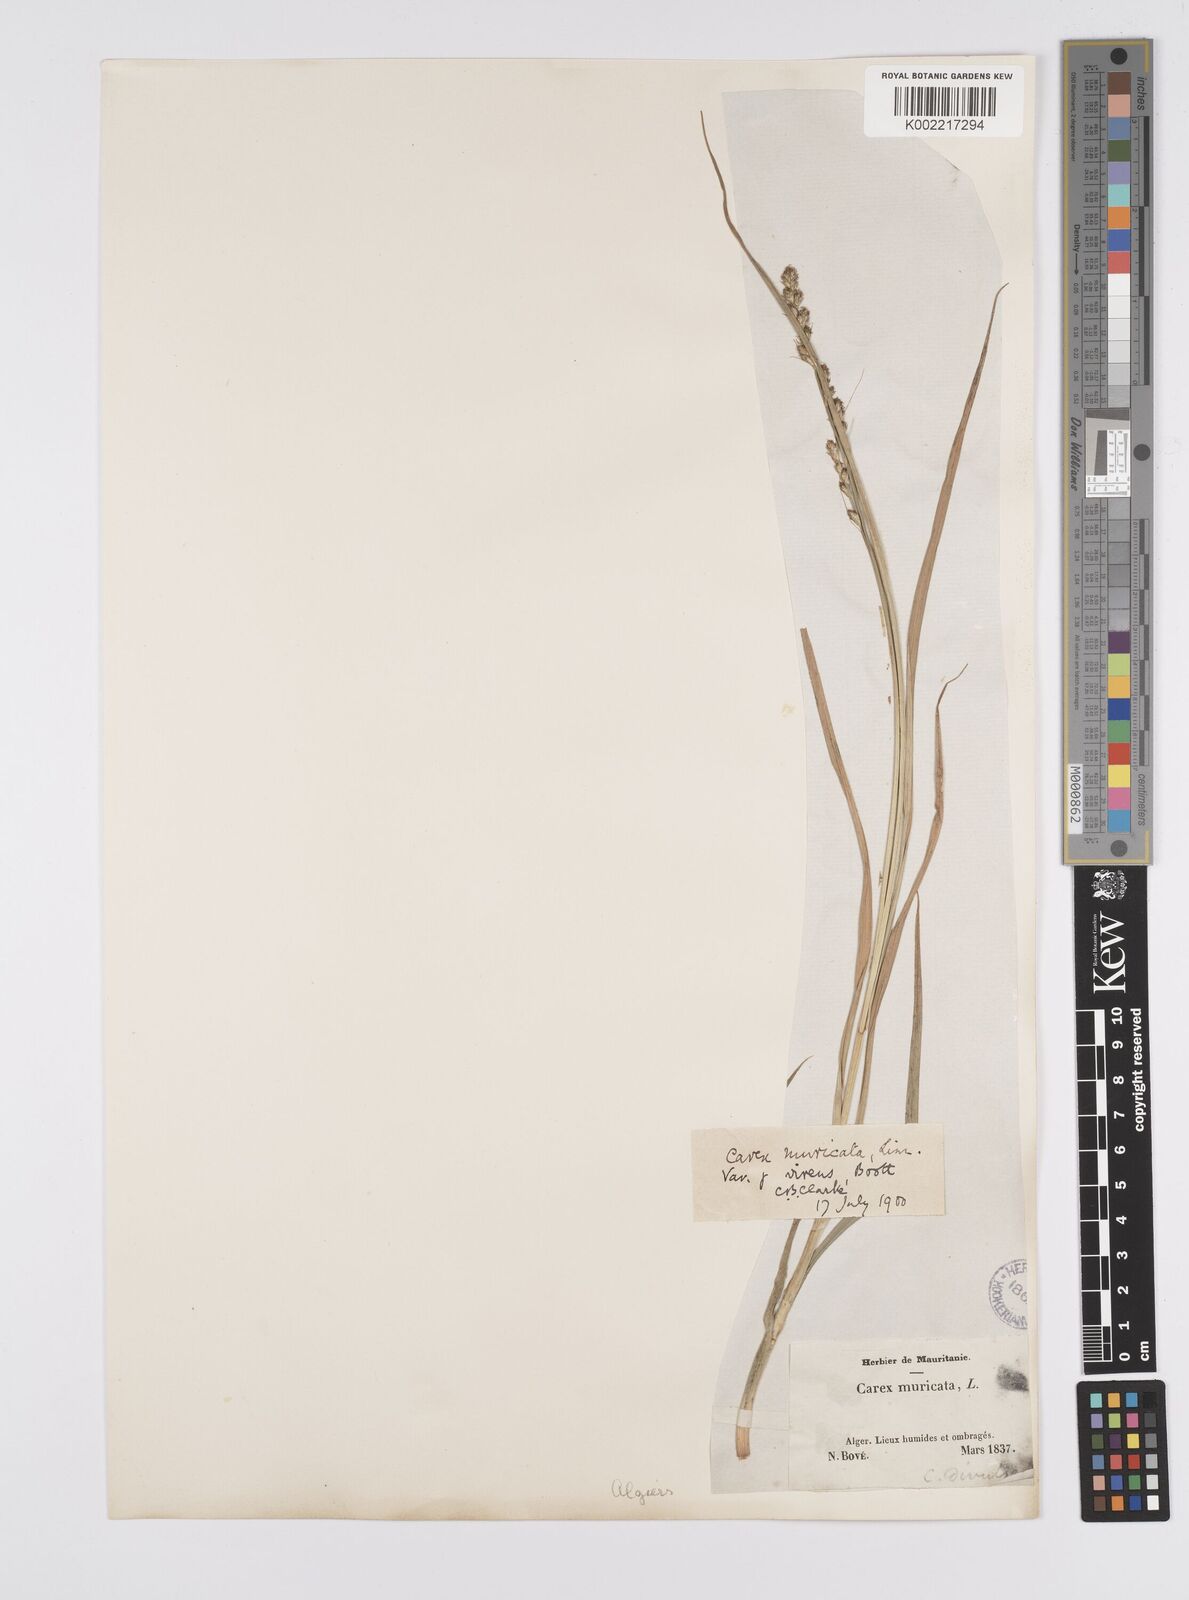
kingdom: Plantae
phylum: Tracheophyta
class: Liliopsida
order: Poales
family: Cyperaceae
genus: Carex
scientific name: Carex muricata
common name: Rough sedge
